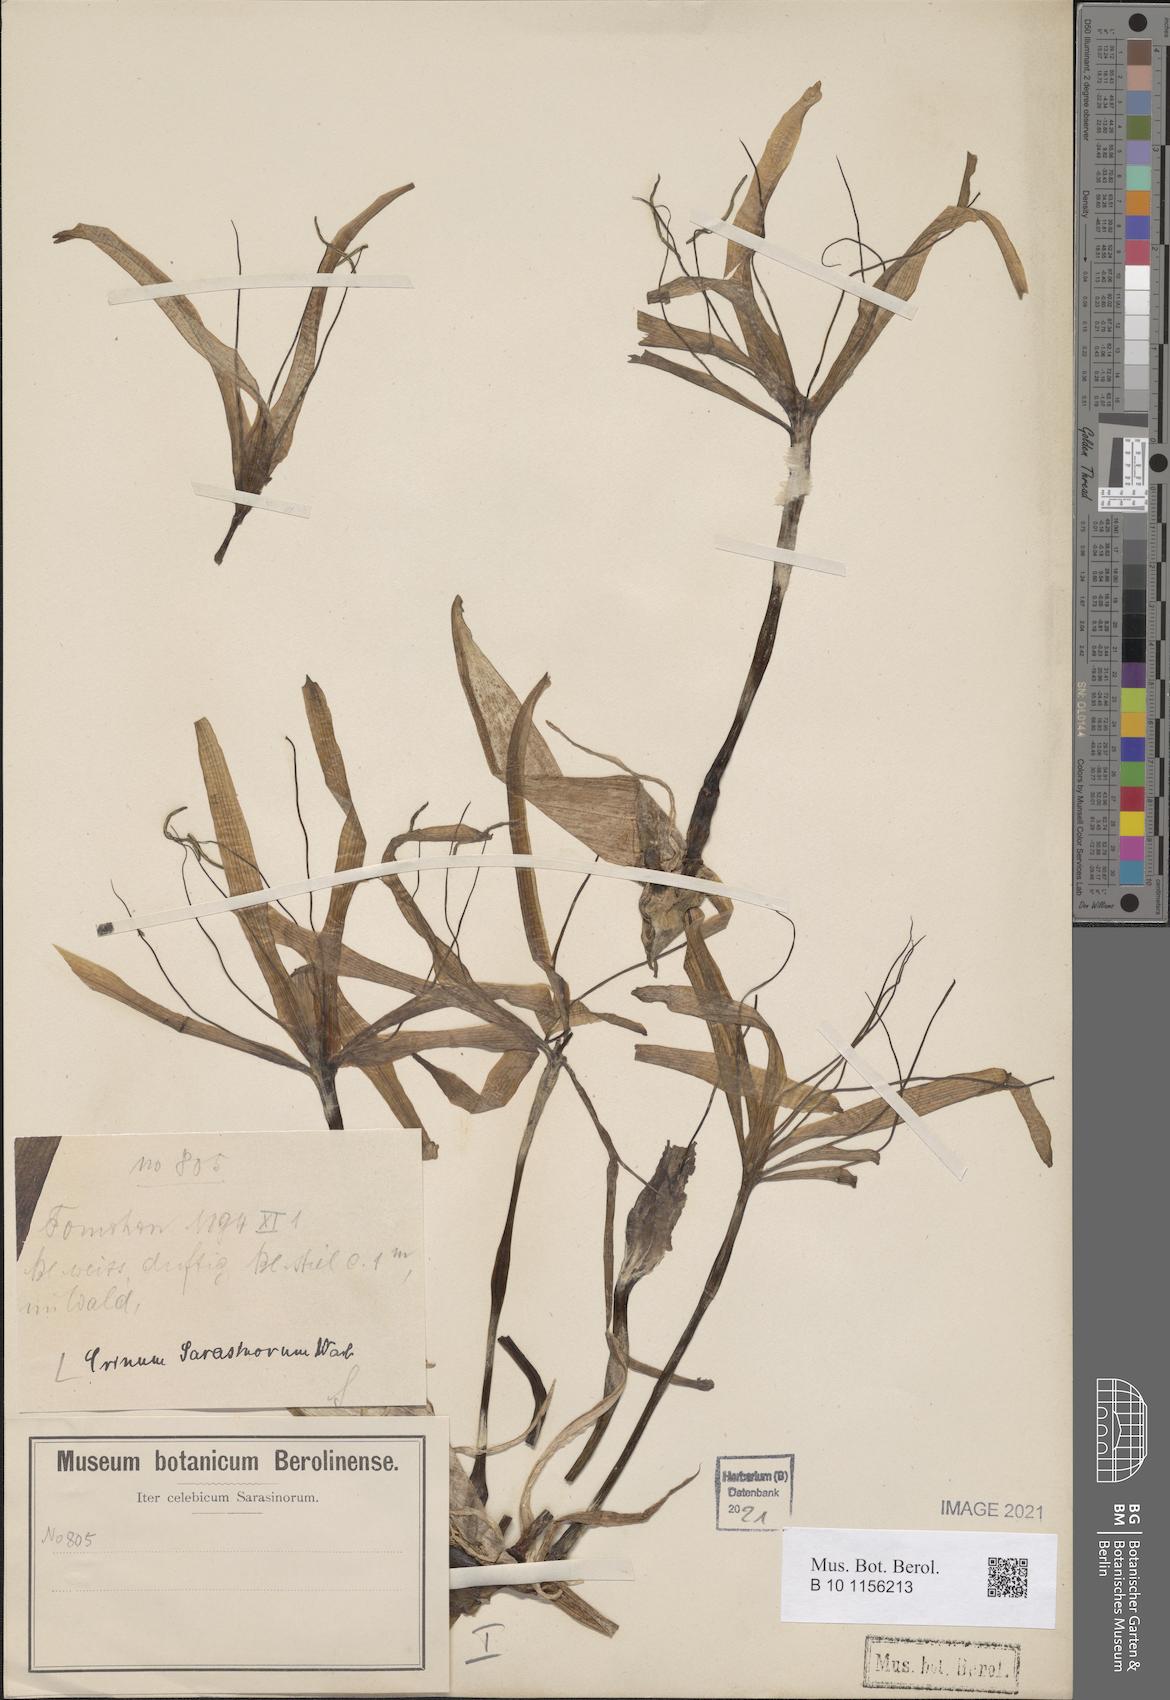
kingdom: Plantae
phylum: Tracheophyta
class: Liliopsida
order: Asparagales
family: Amaryllidaceae
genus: Crinum
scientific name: Crinum
